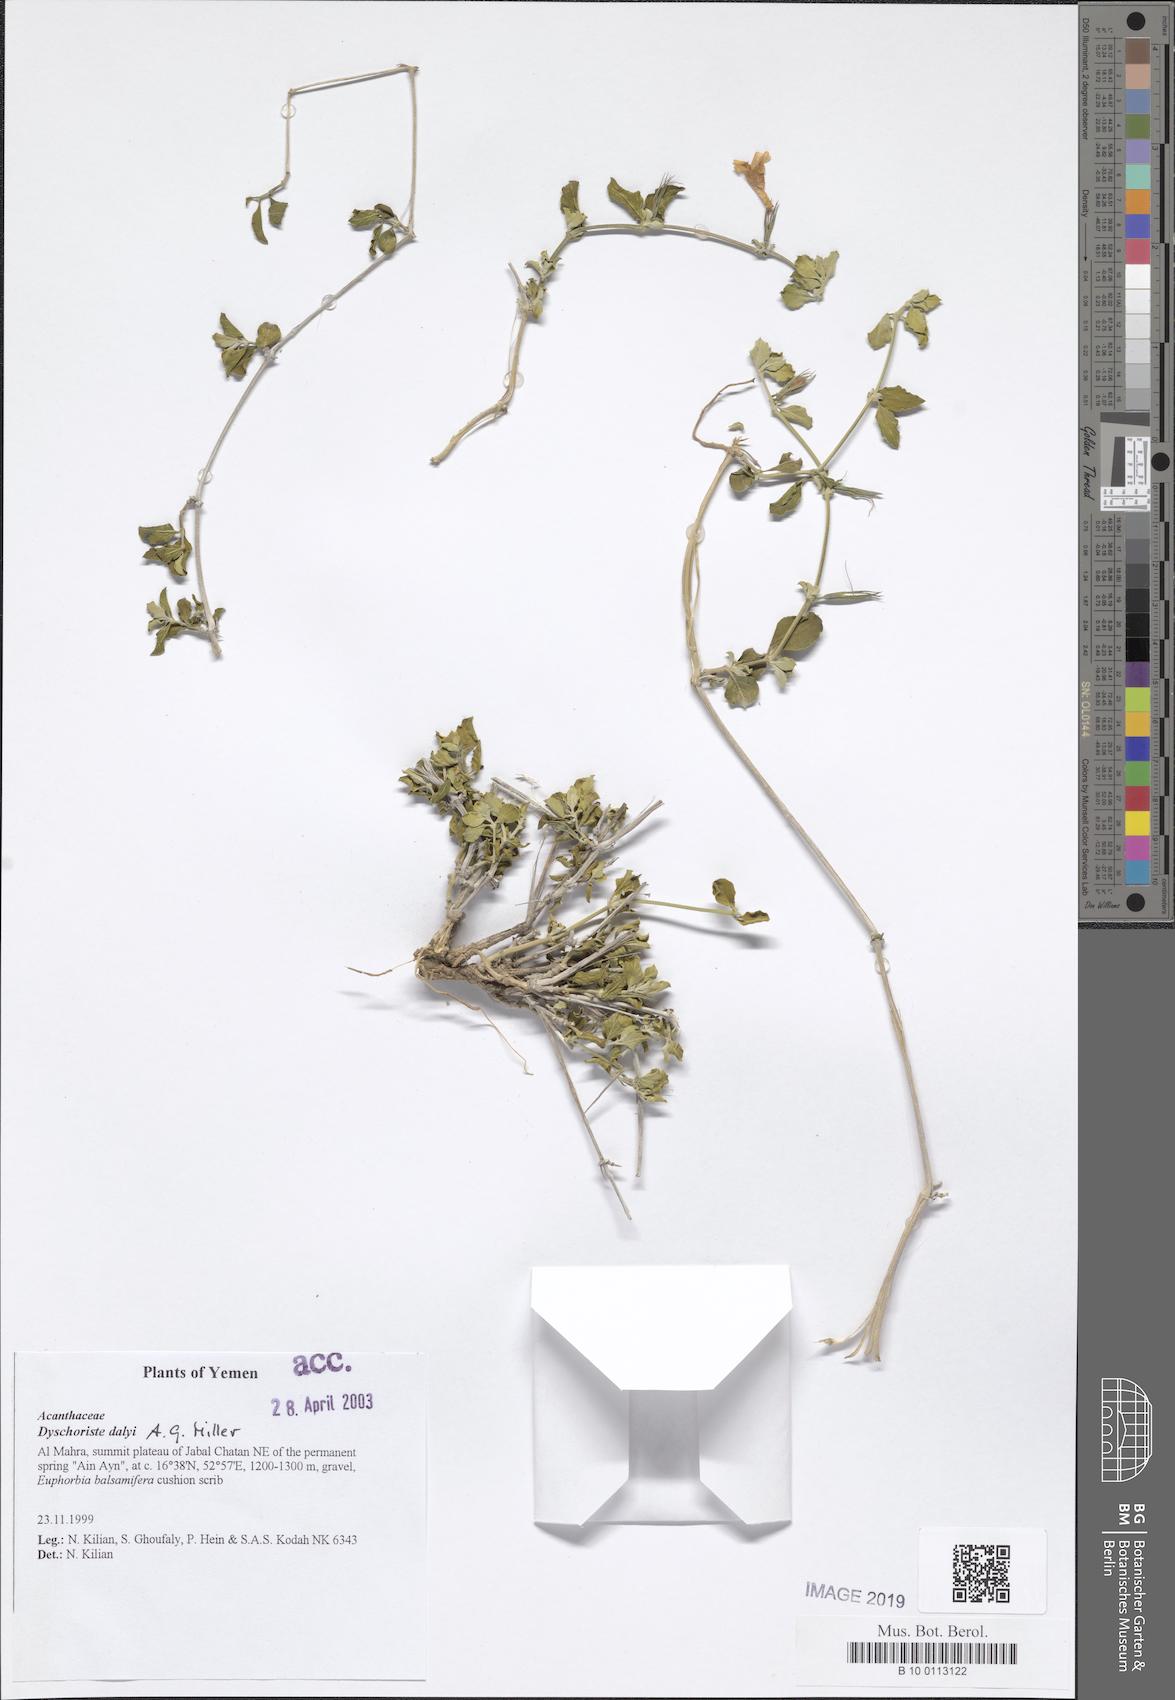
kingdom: Plantae
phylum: Tracheophyta
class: Magnoliopsida
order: Lamiales
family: Acanthaceae
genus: Dyschoriste
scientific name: Dyschoriste dalyi
